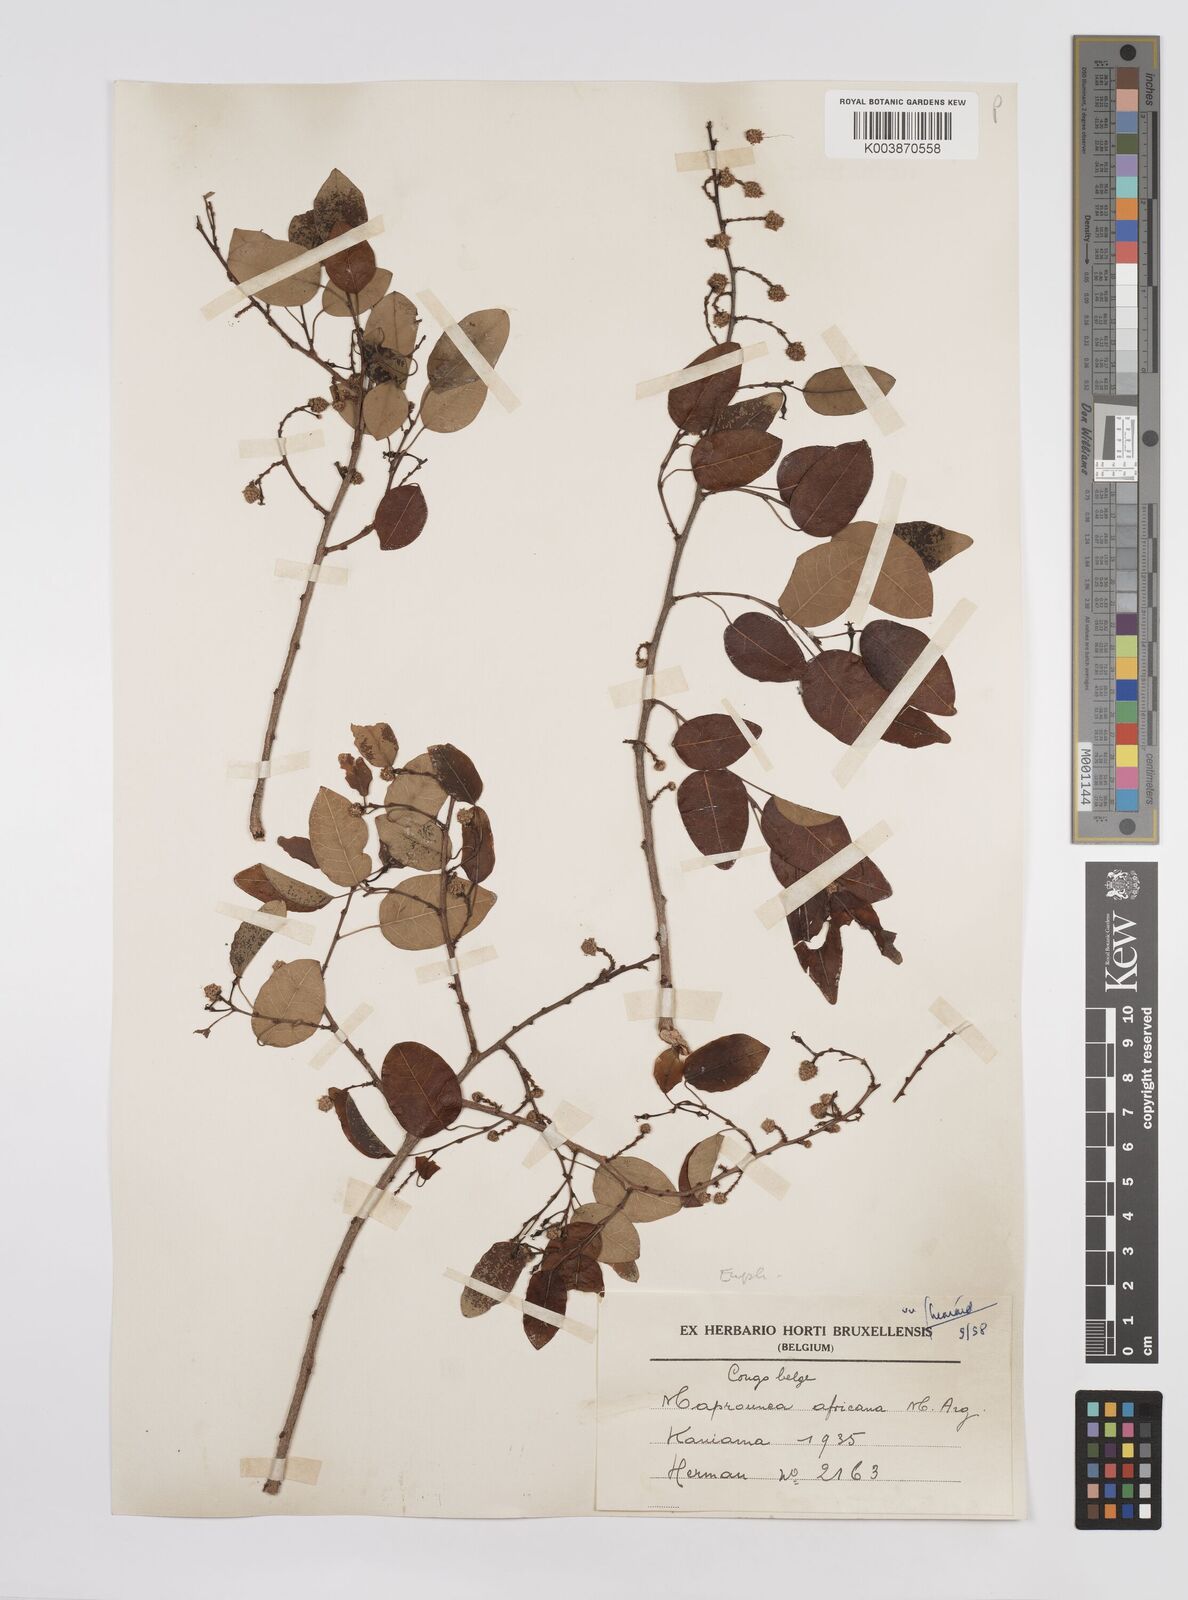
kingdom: Plantae
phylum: Tracheophyta
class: Magnoliopsida
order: Malpighiales
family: Euphorbiaceae
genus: Maprounea
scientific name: Maprounea africana
